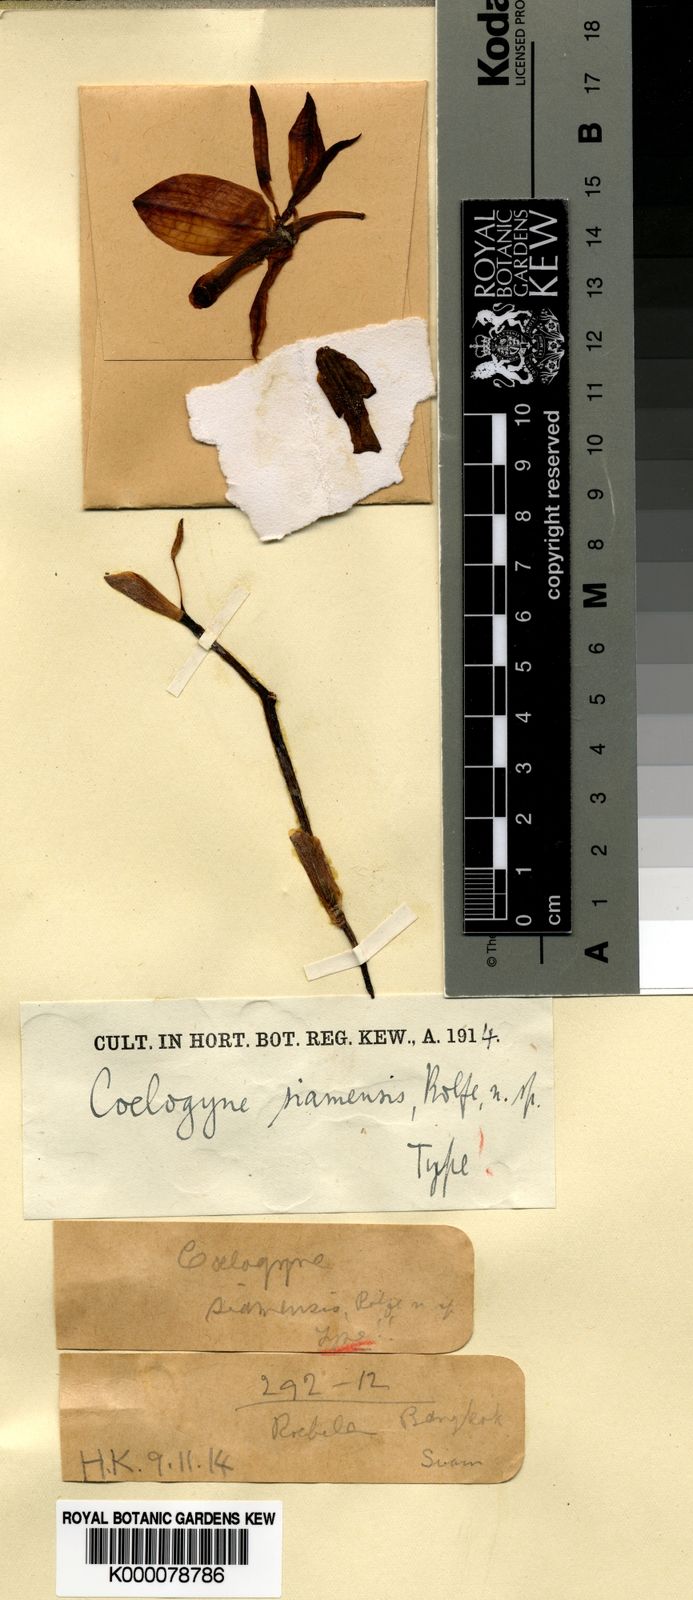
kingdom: Plantae
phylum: Tracheophyta
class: Liliopsida
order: Asparagales
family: Orchidaceae
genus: Coelogyne
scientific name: Coelogyne assamica
